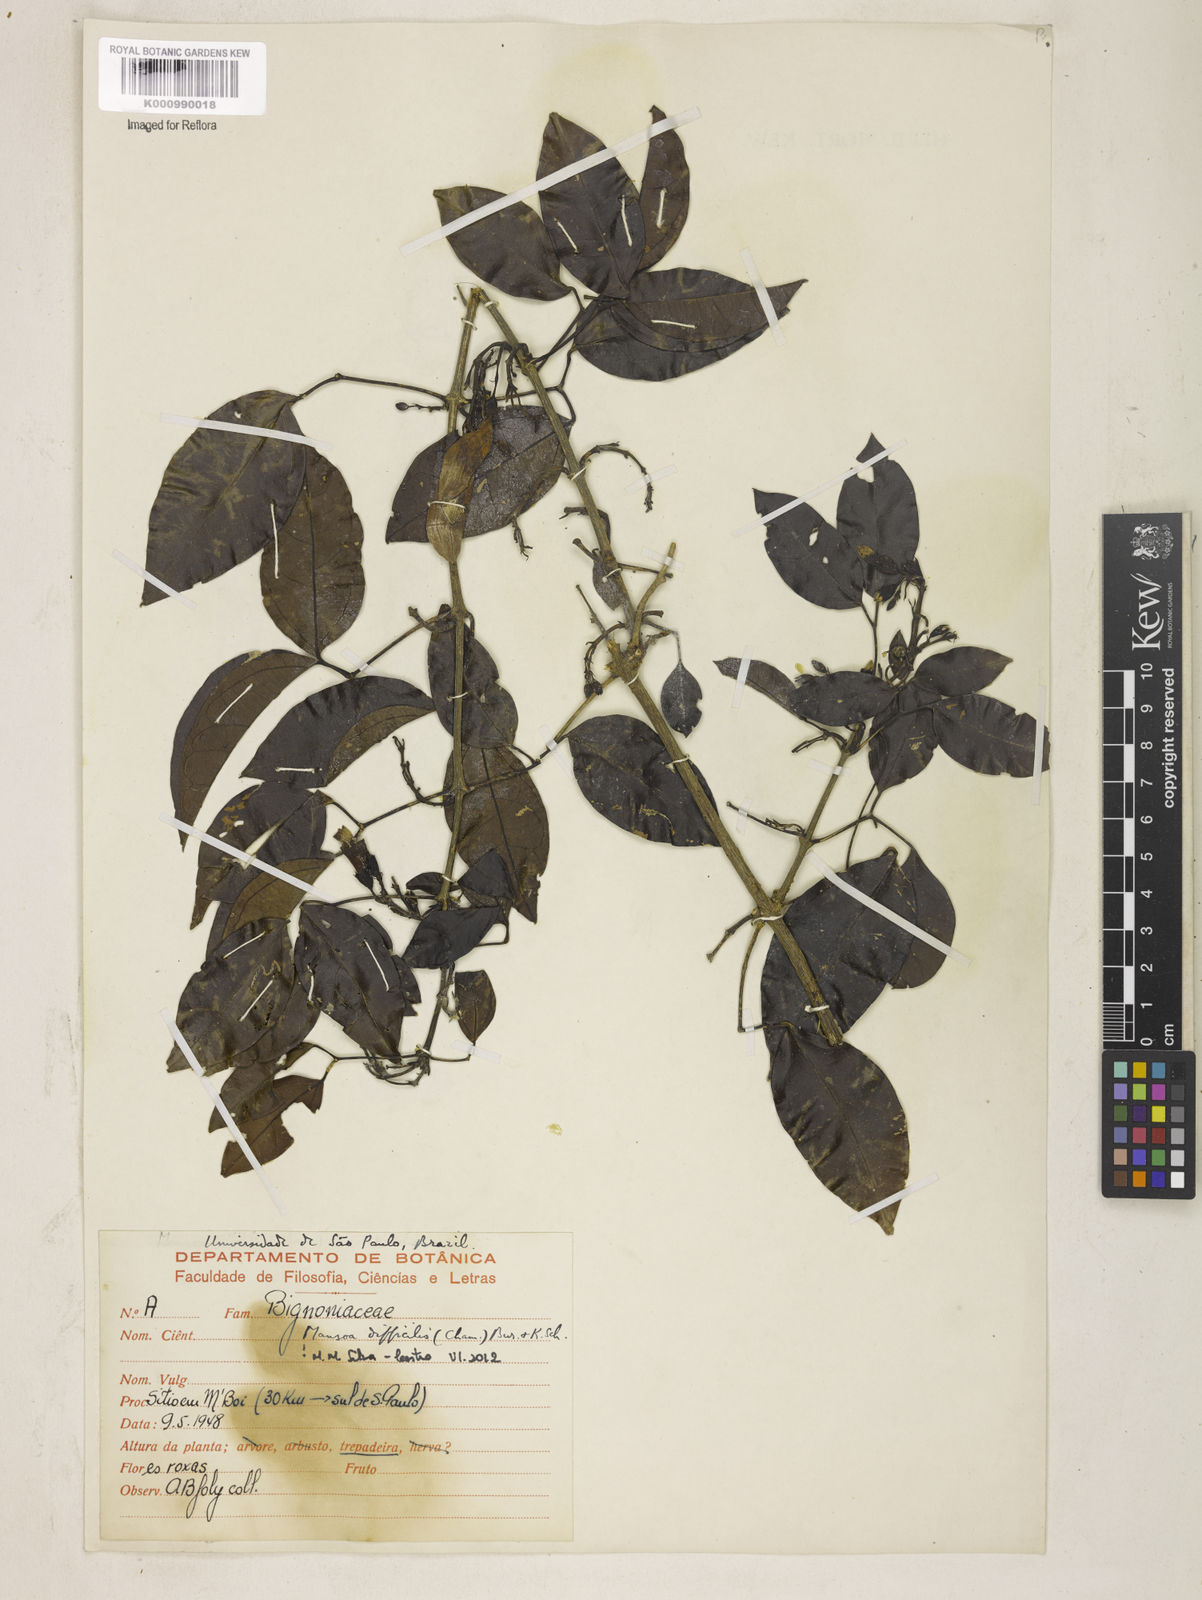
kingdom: Plantae
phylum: Tracheophyta
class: Magnoliopsida
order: Lamiales
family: Bignoniaceae
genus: Mansoa
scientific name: Mansoa difficilis
